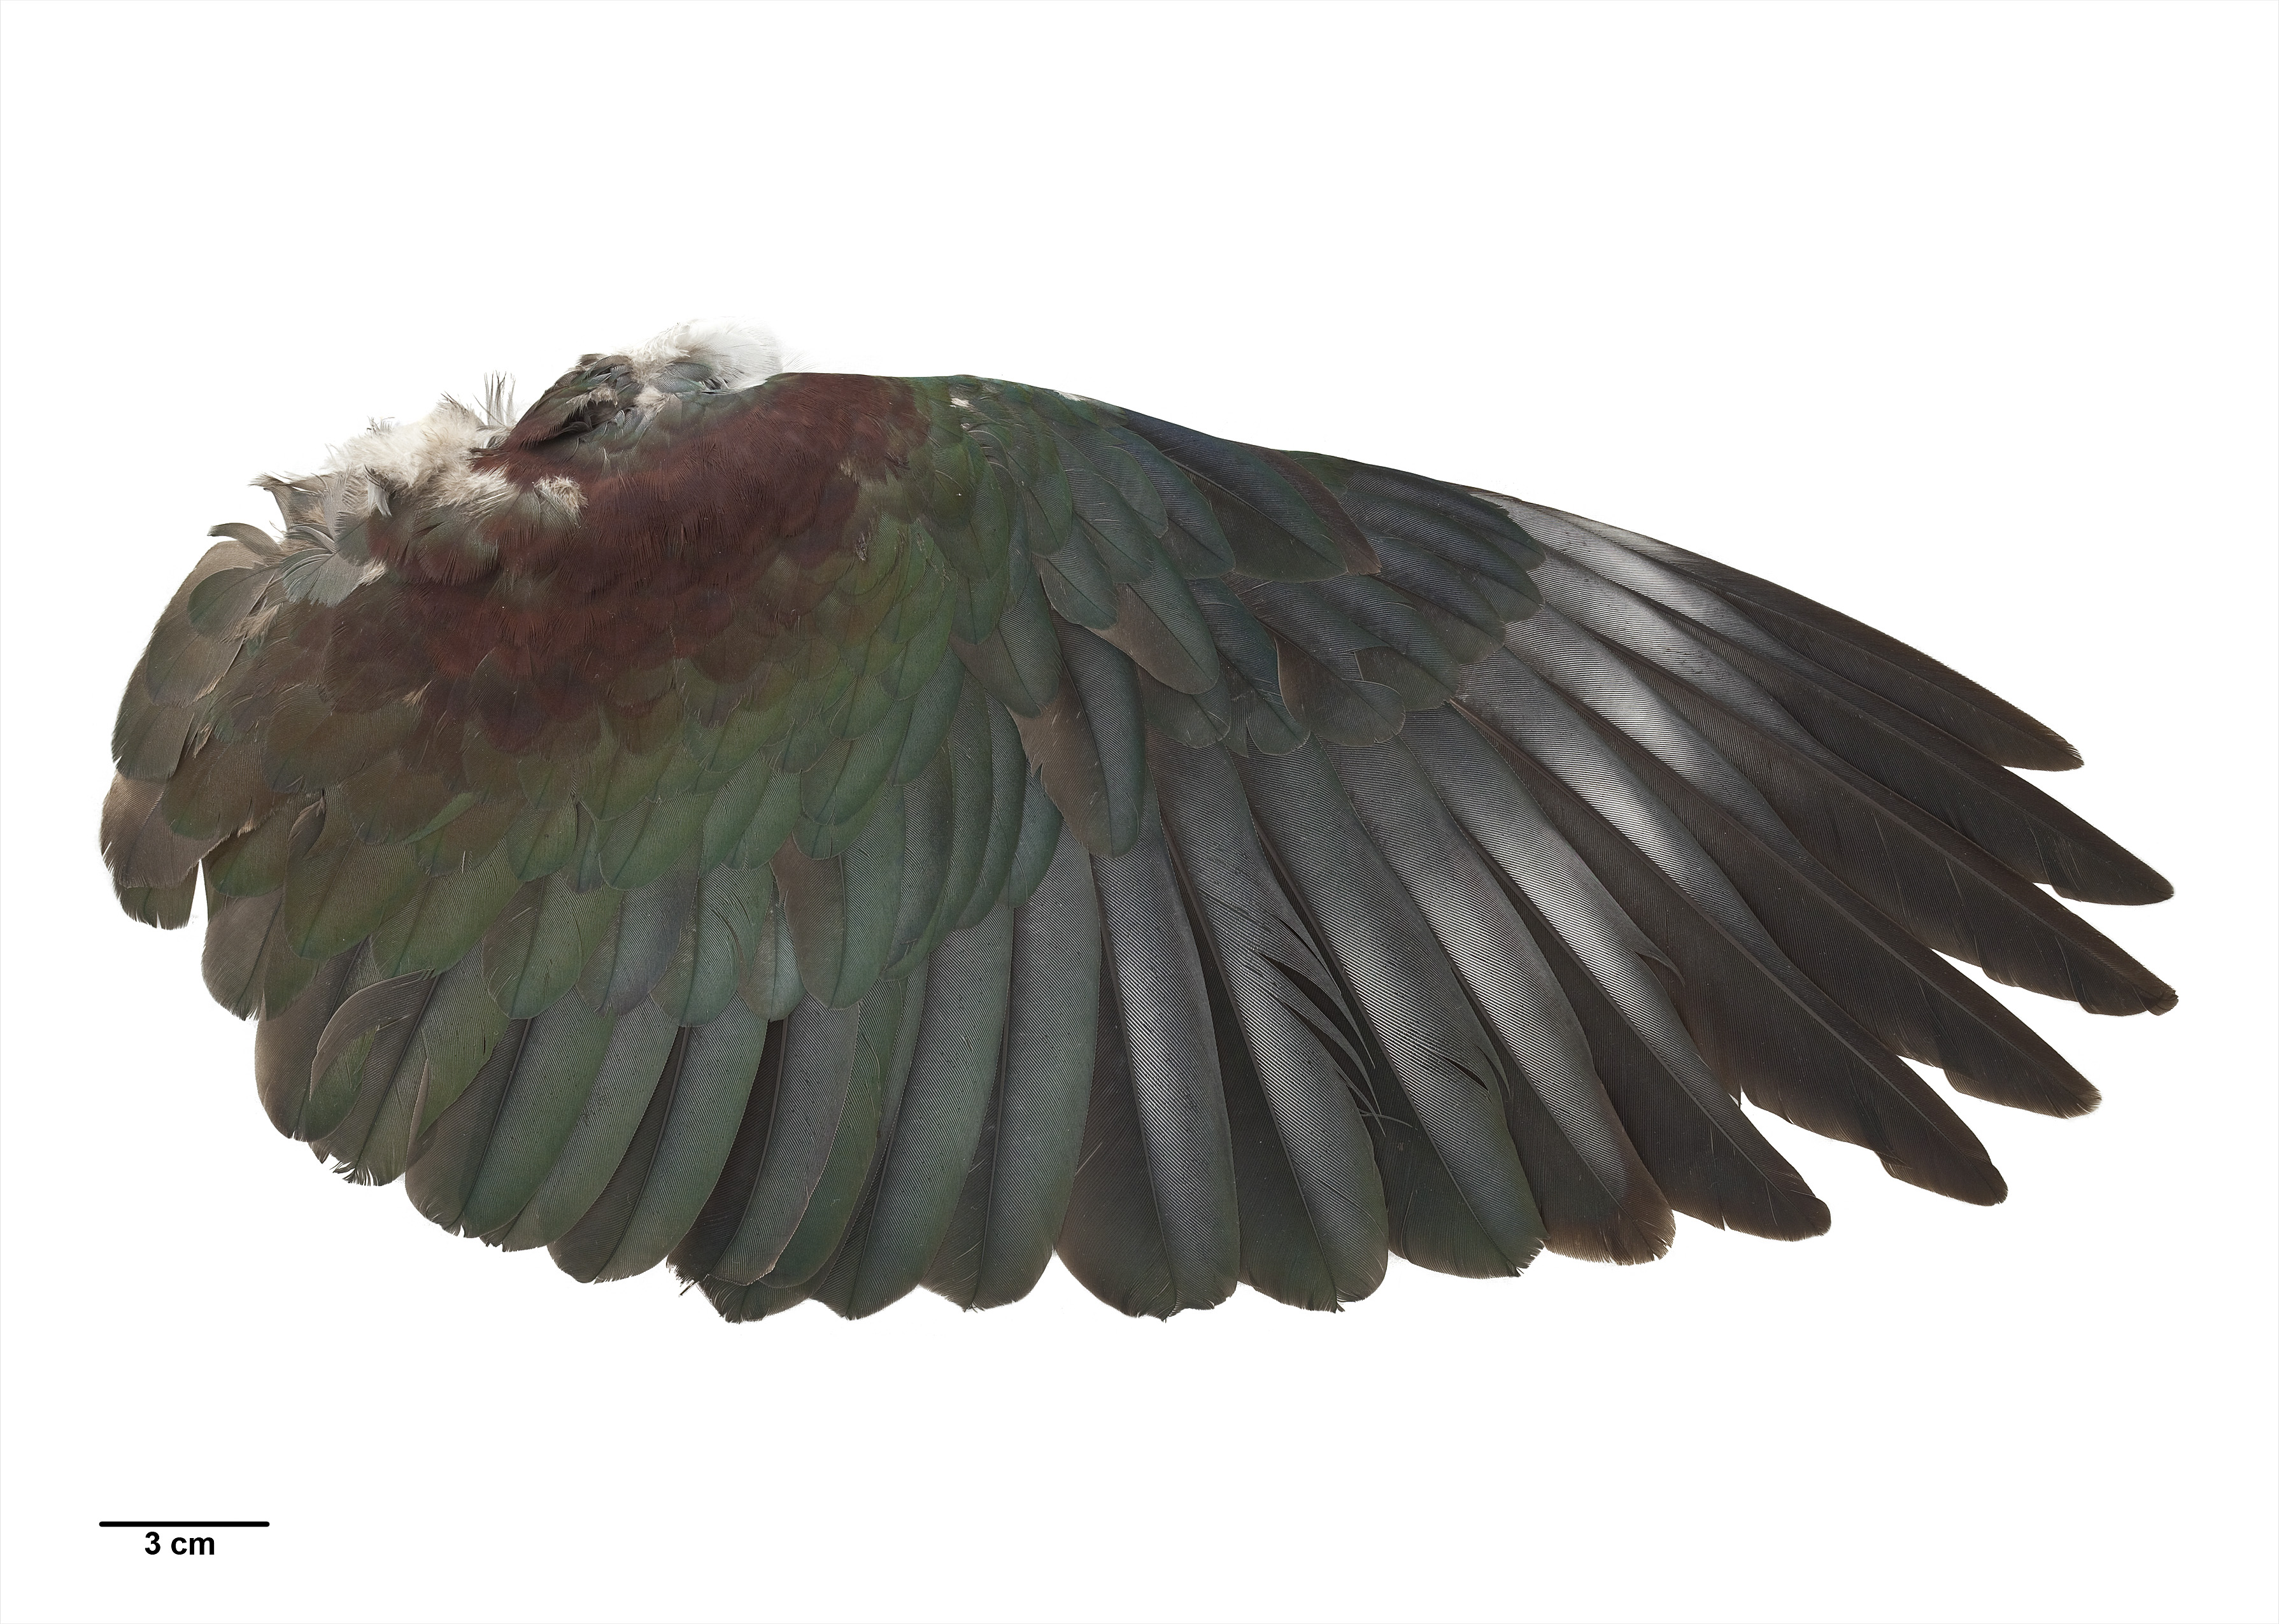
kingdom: Animalia
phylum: Chordata
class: Aves
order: Columbiformes
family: Columbidae
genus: Hemiphaga
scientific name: Hemiphaga novaeseelandiae
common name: New zealand pigeon
